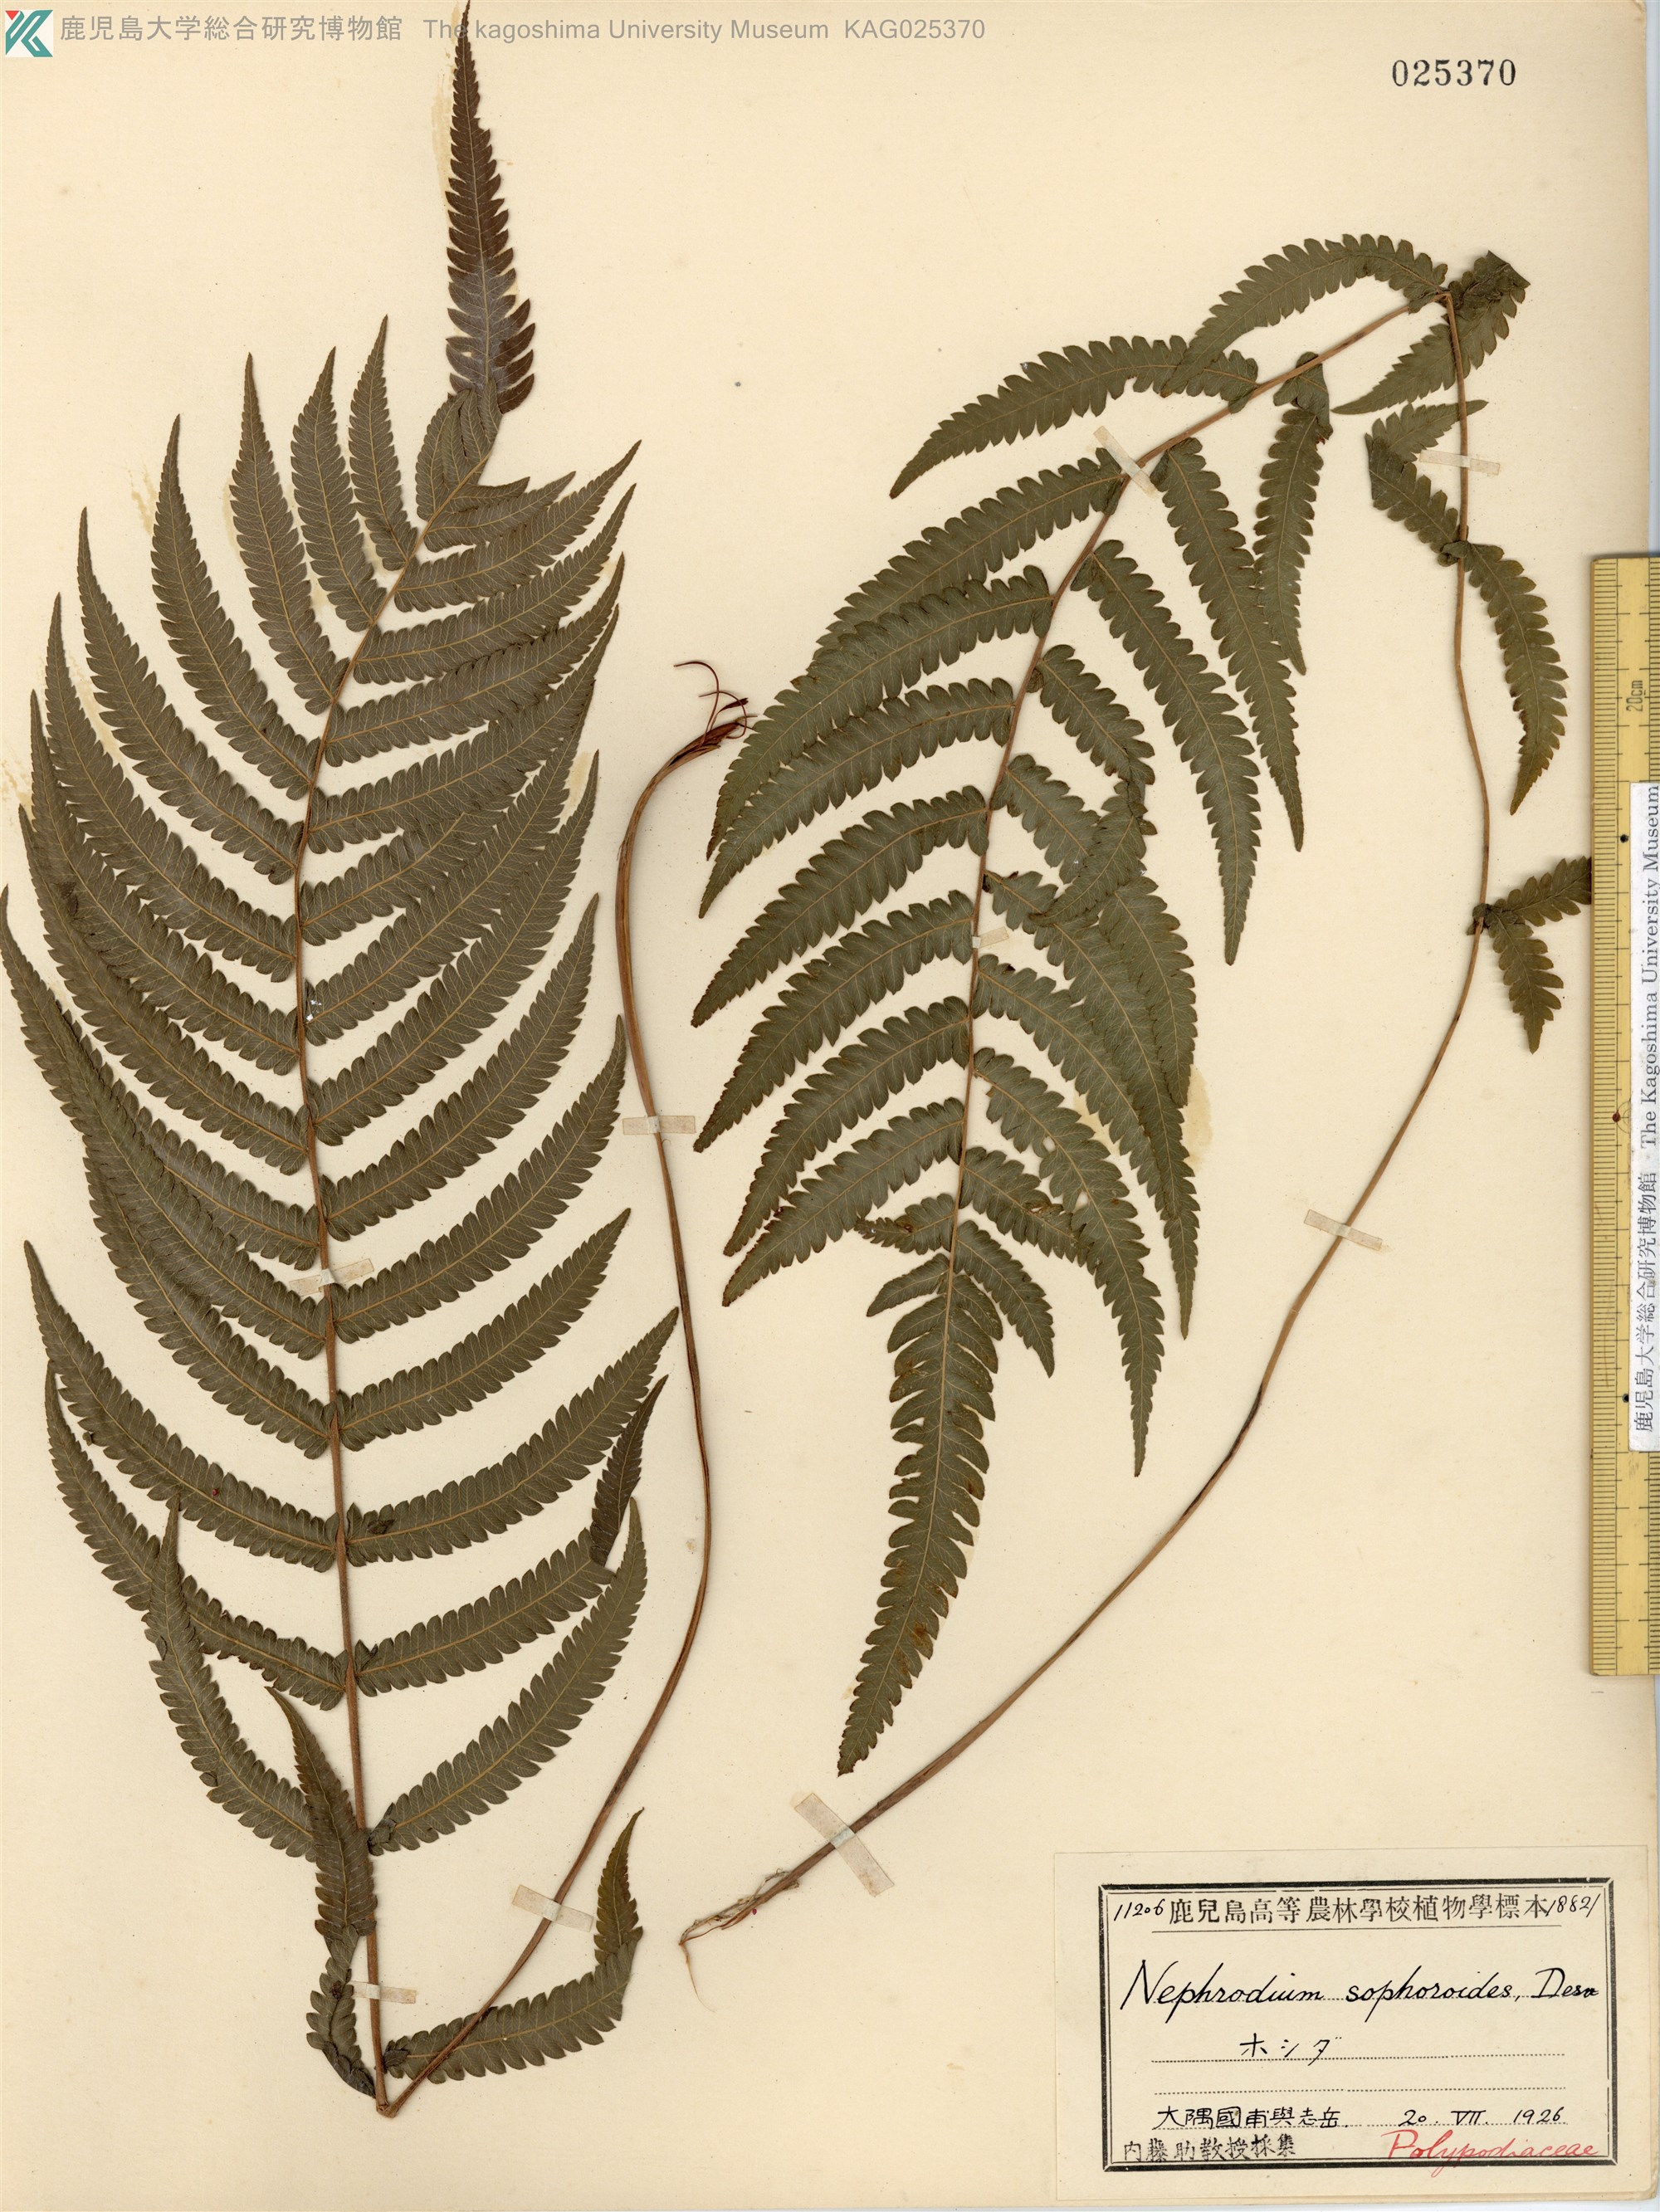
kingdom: Plantae
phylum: Tracheophyta
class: Polypodiopsida
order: Polypodiales
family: Thelypteridaceae
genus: Christella
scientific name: Christella acuminata
